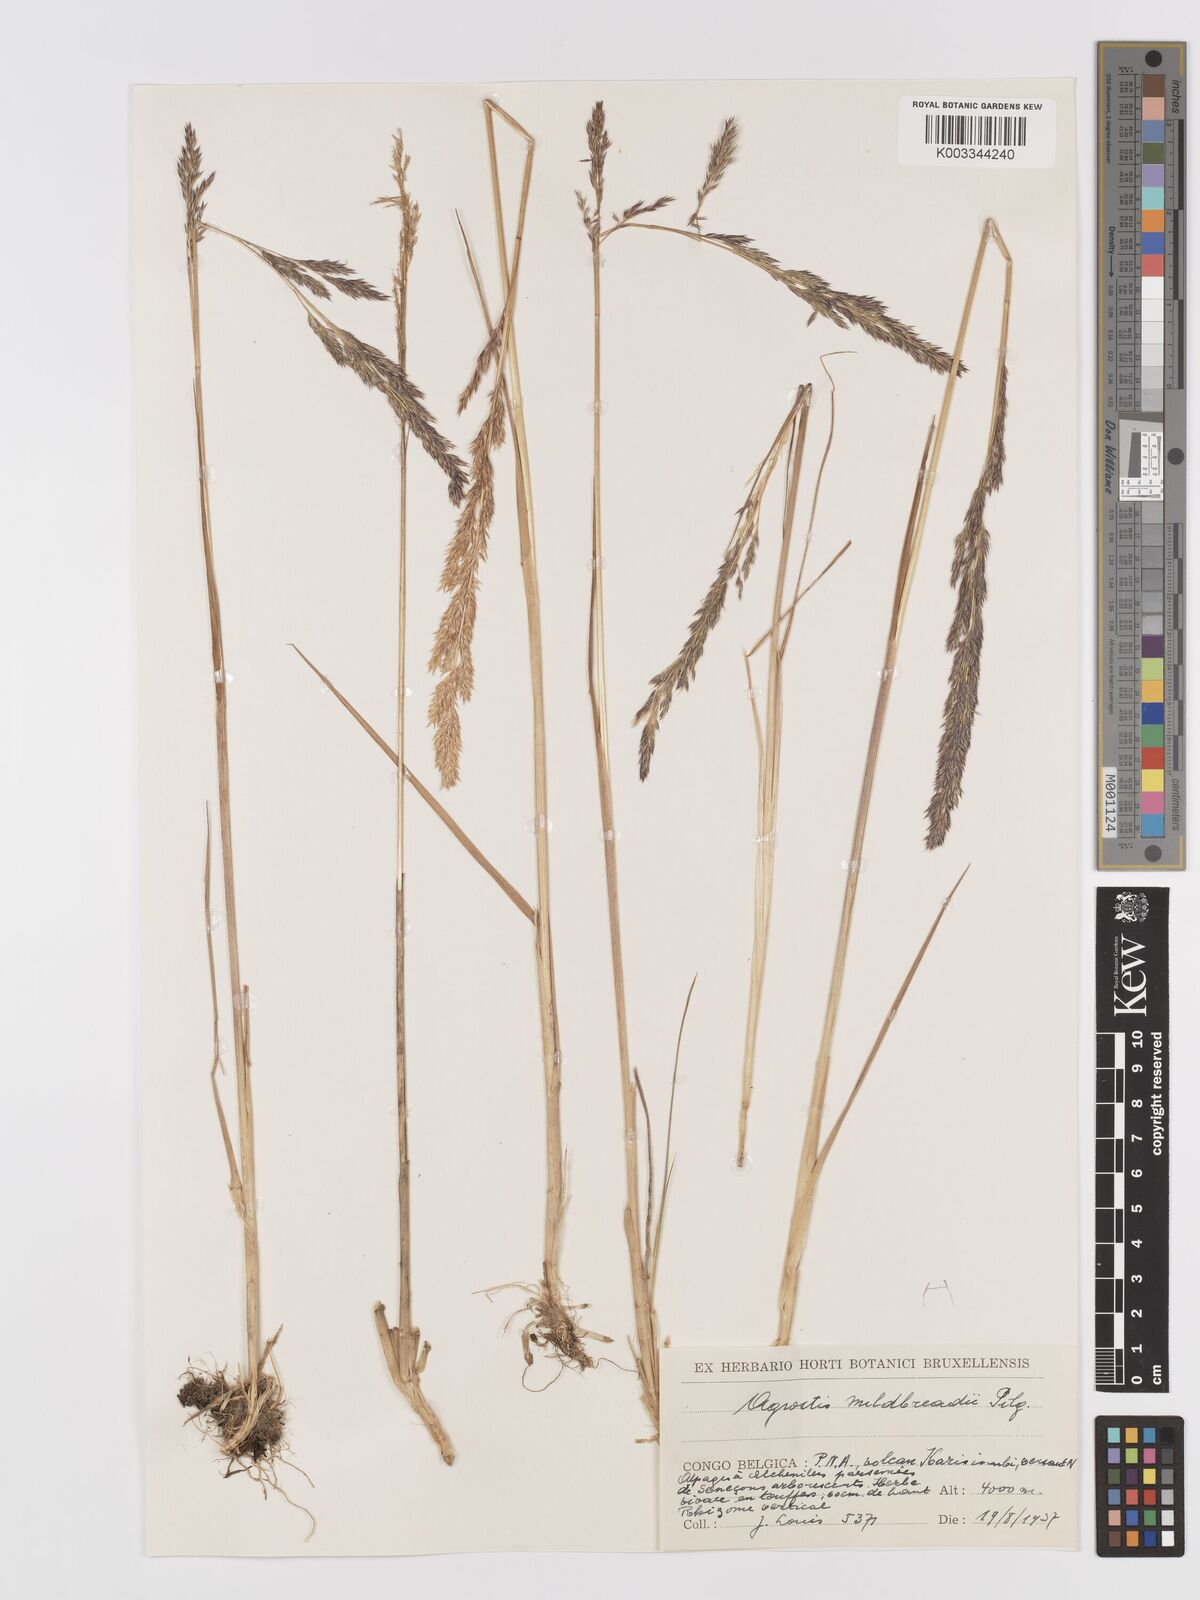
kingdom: Plantae
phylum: Tracheophyta
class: Liliopsida
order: Poales
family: Poaceae
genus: Agrostis
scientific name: Agrostis quinqueseta
